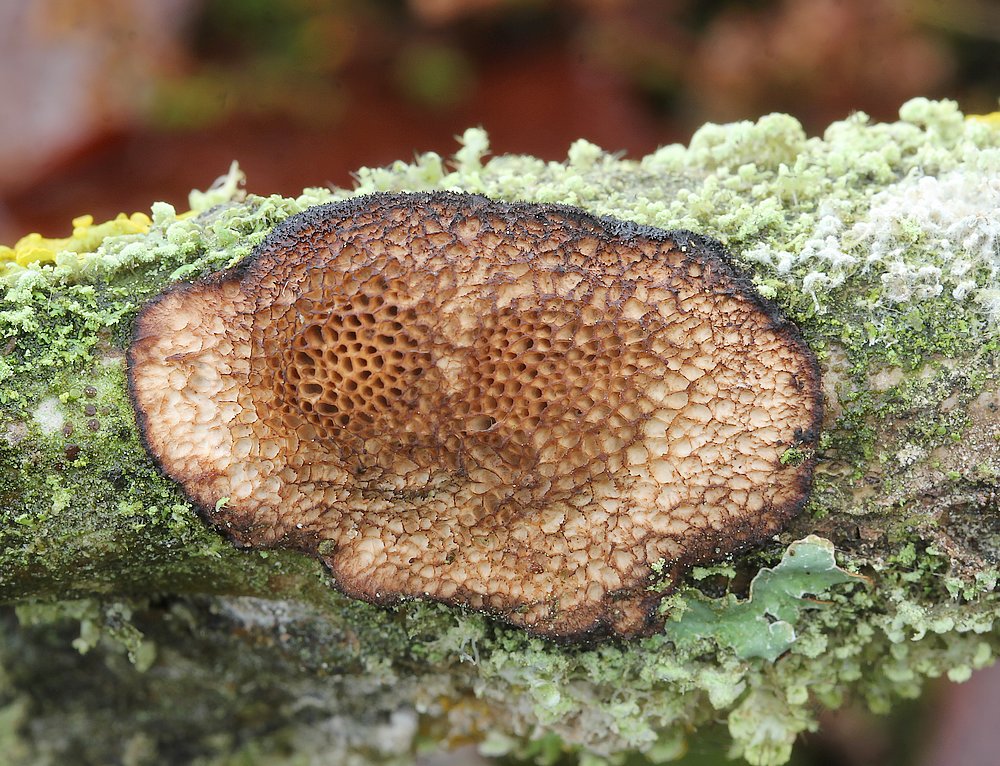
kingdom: Fungi
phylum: Basidiomycota
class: Agaricomycetes
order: Polyporales
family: Polyporaceae
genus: Szczepkamyces
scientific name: Szczepkamyces campestris
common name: hasselporesvamp
